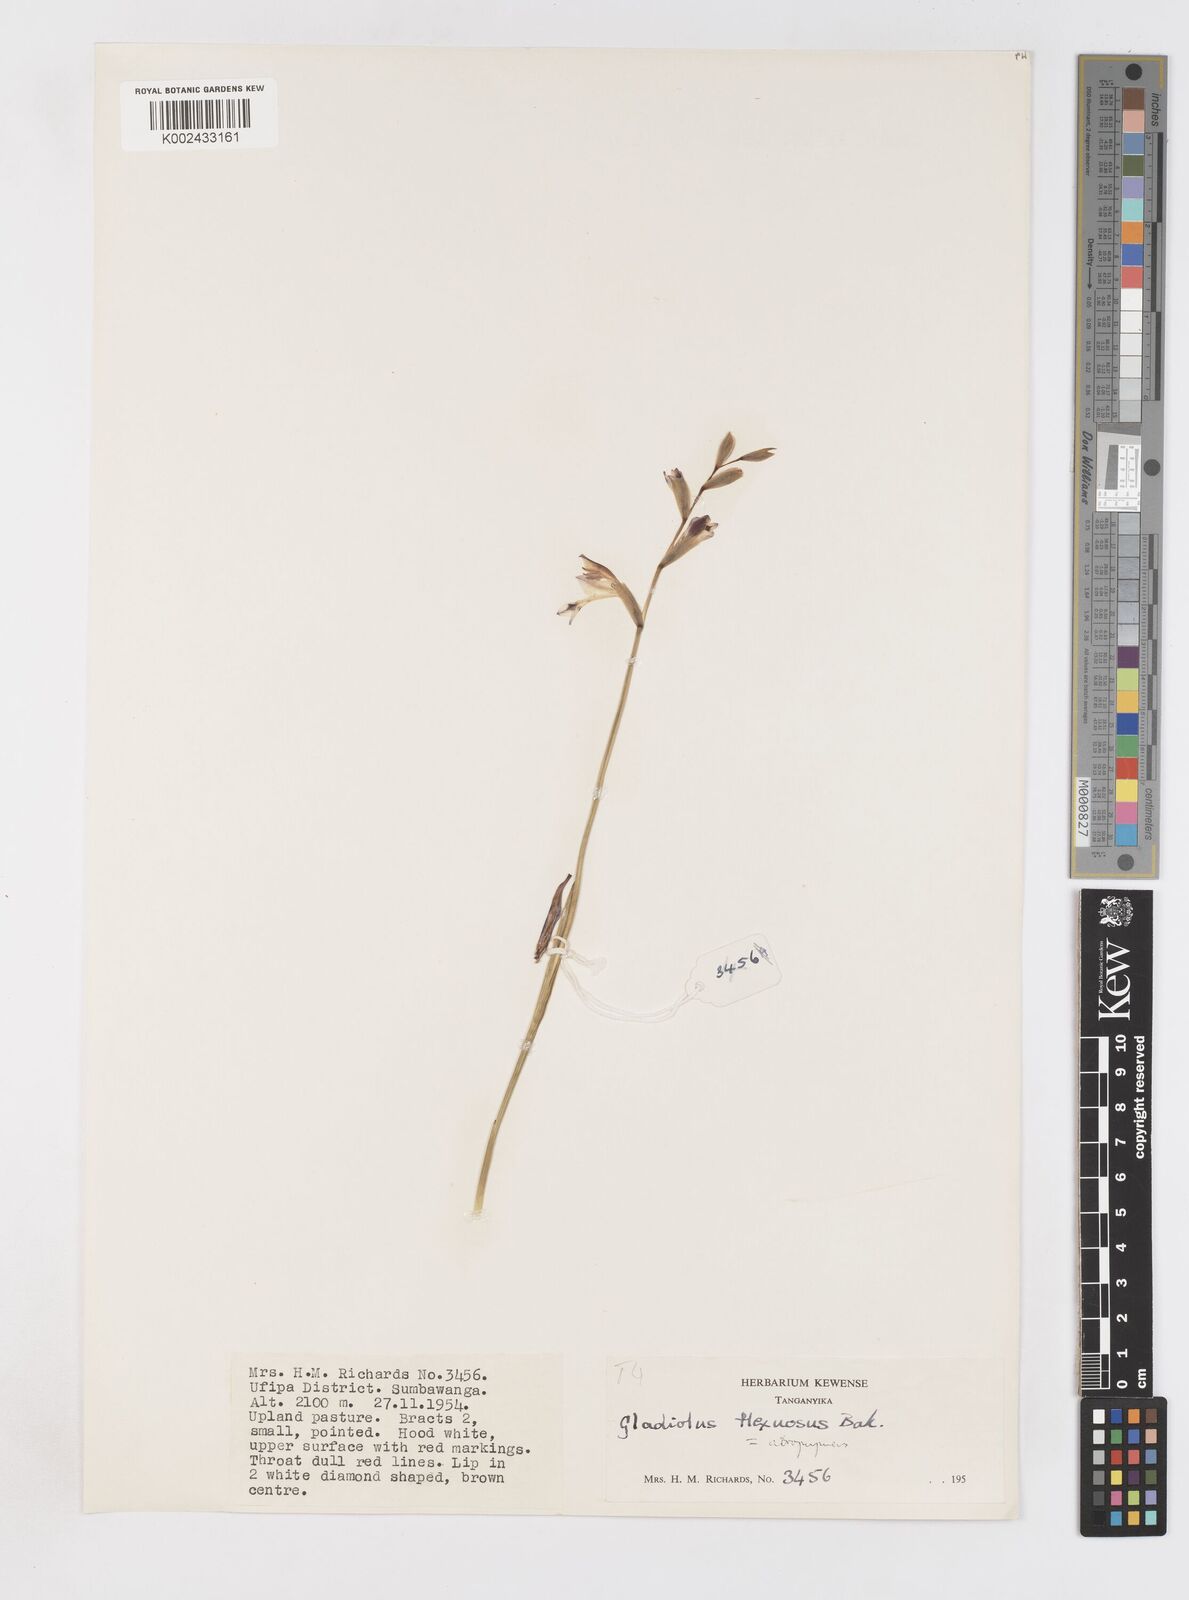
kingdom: Plantae
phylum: Tracheophyta
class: Liliopsida
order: Asparagales
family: Iridaceae
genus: Gladiolus
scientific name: Gladiolus atropurpureus
